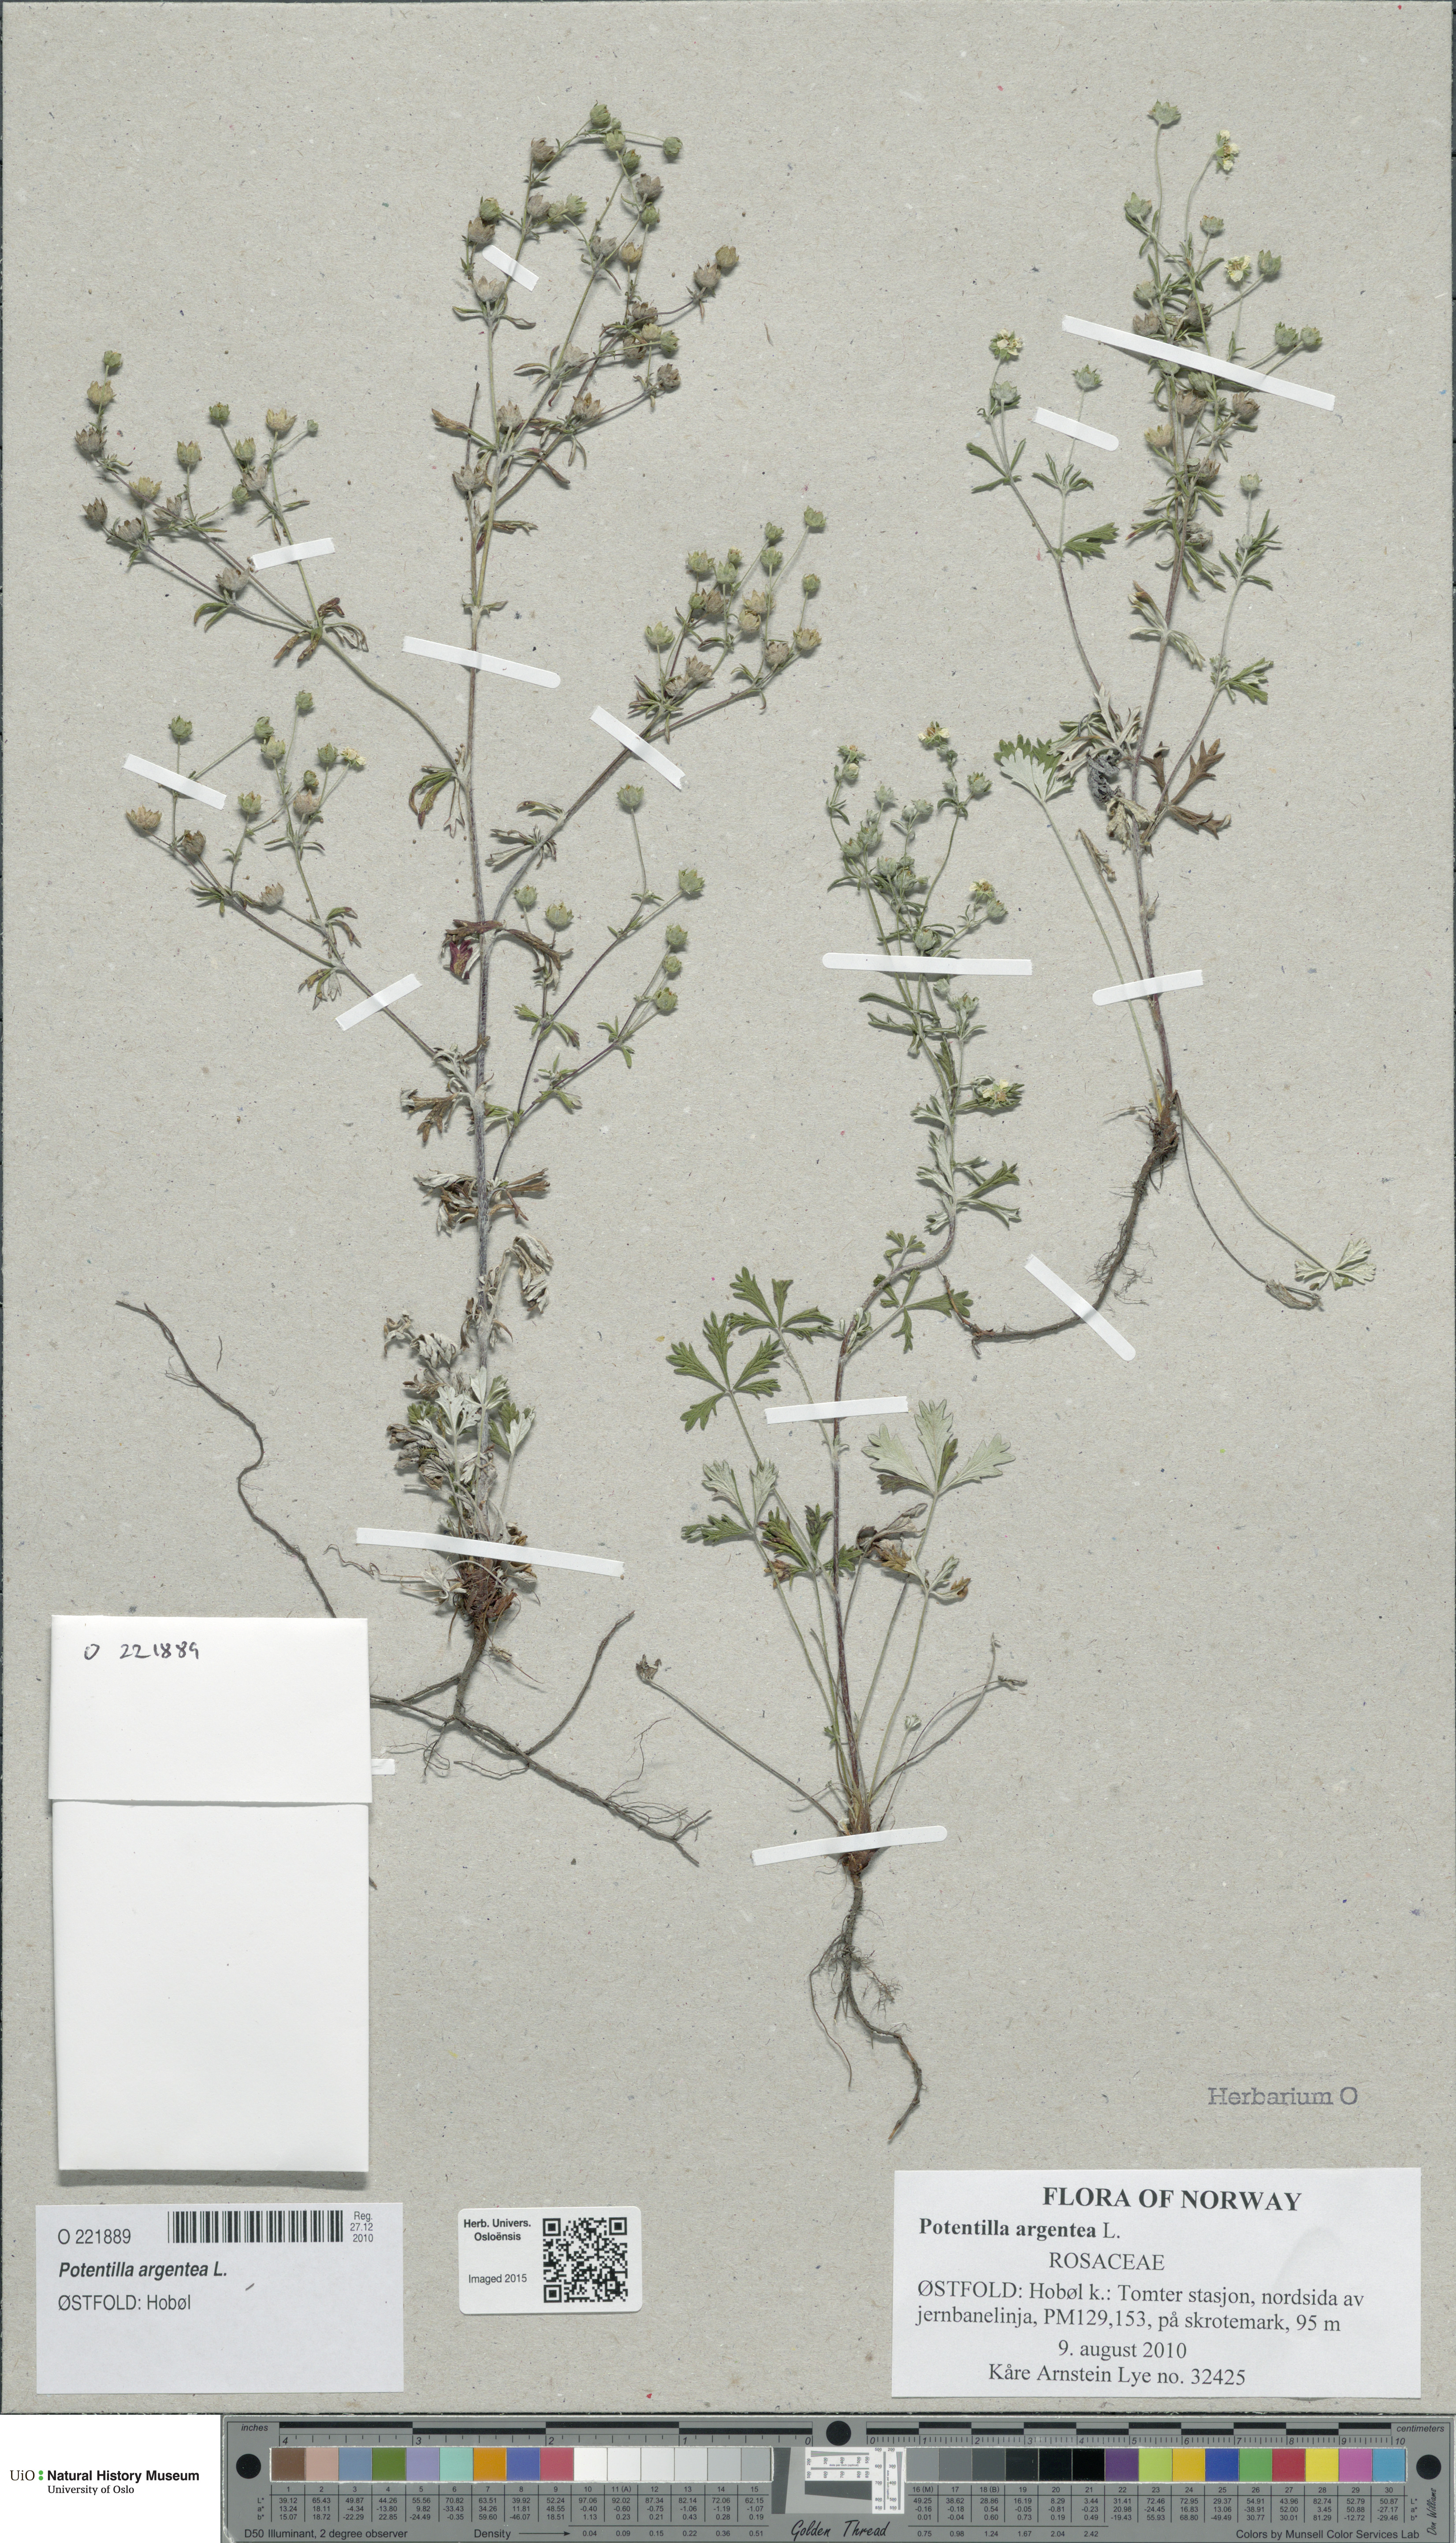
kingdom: Plantae
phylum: Tracheophyta
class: Magnoliopsida
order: Rosales
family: Rosaceae
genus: Potentilla
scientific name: Potentilla argentea
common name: Hoary cinquefoil
